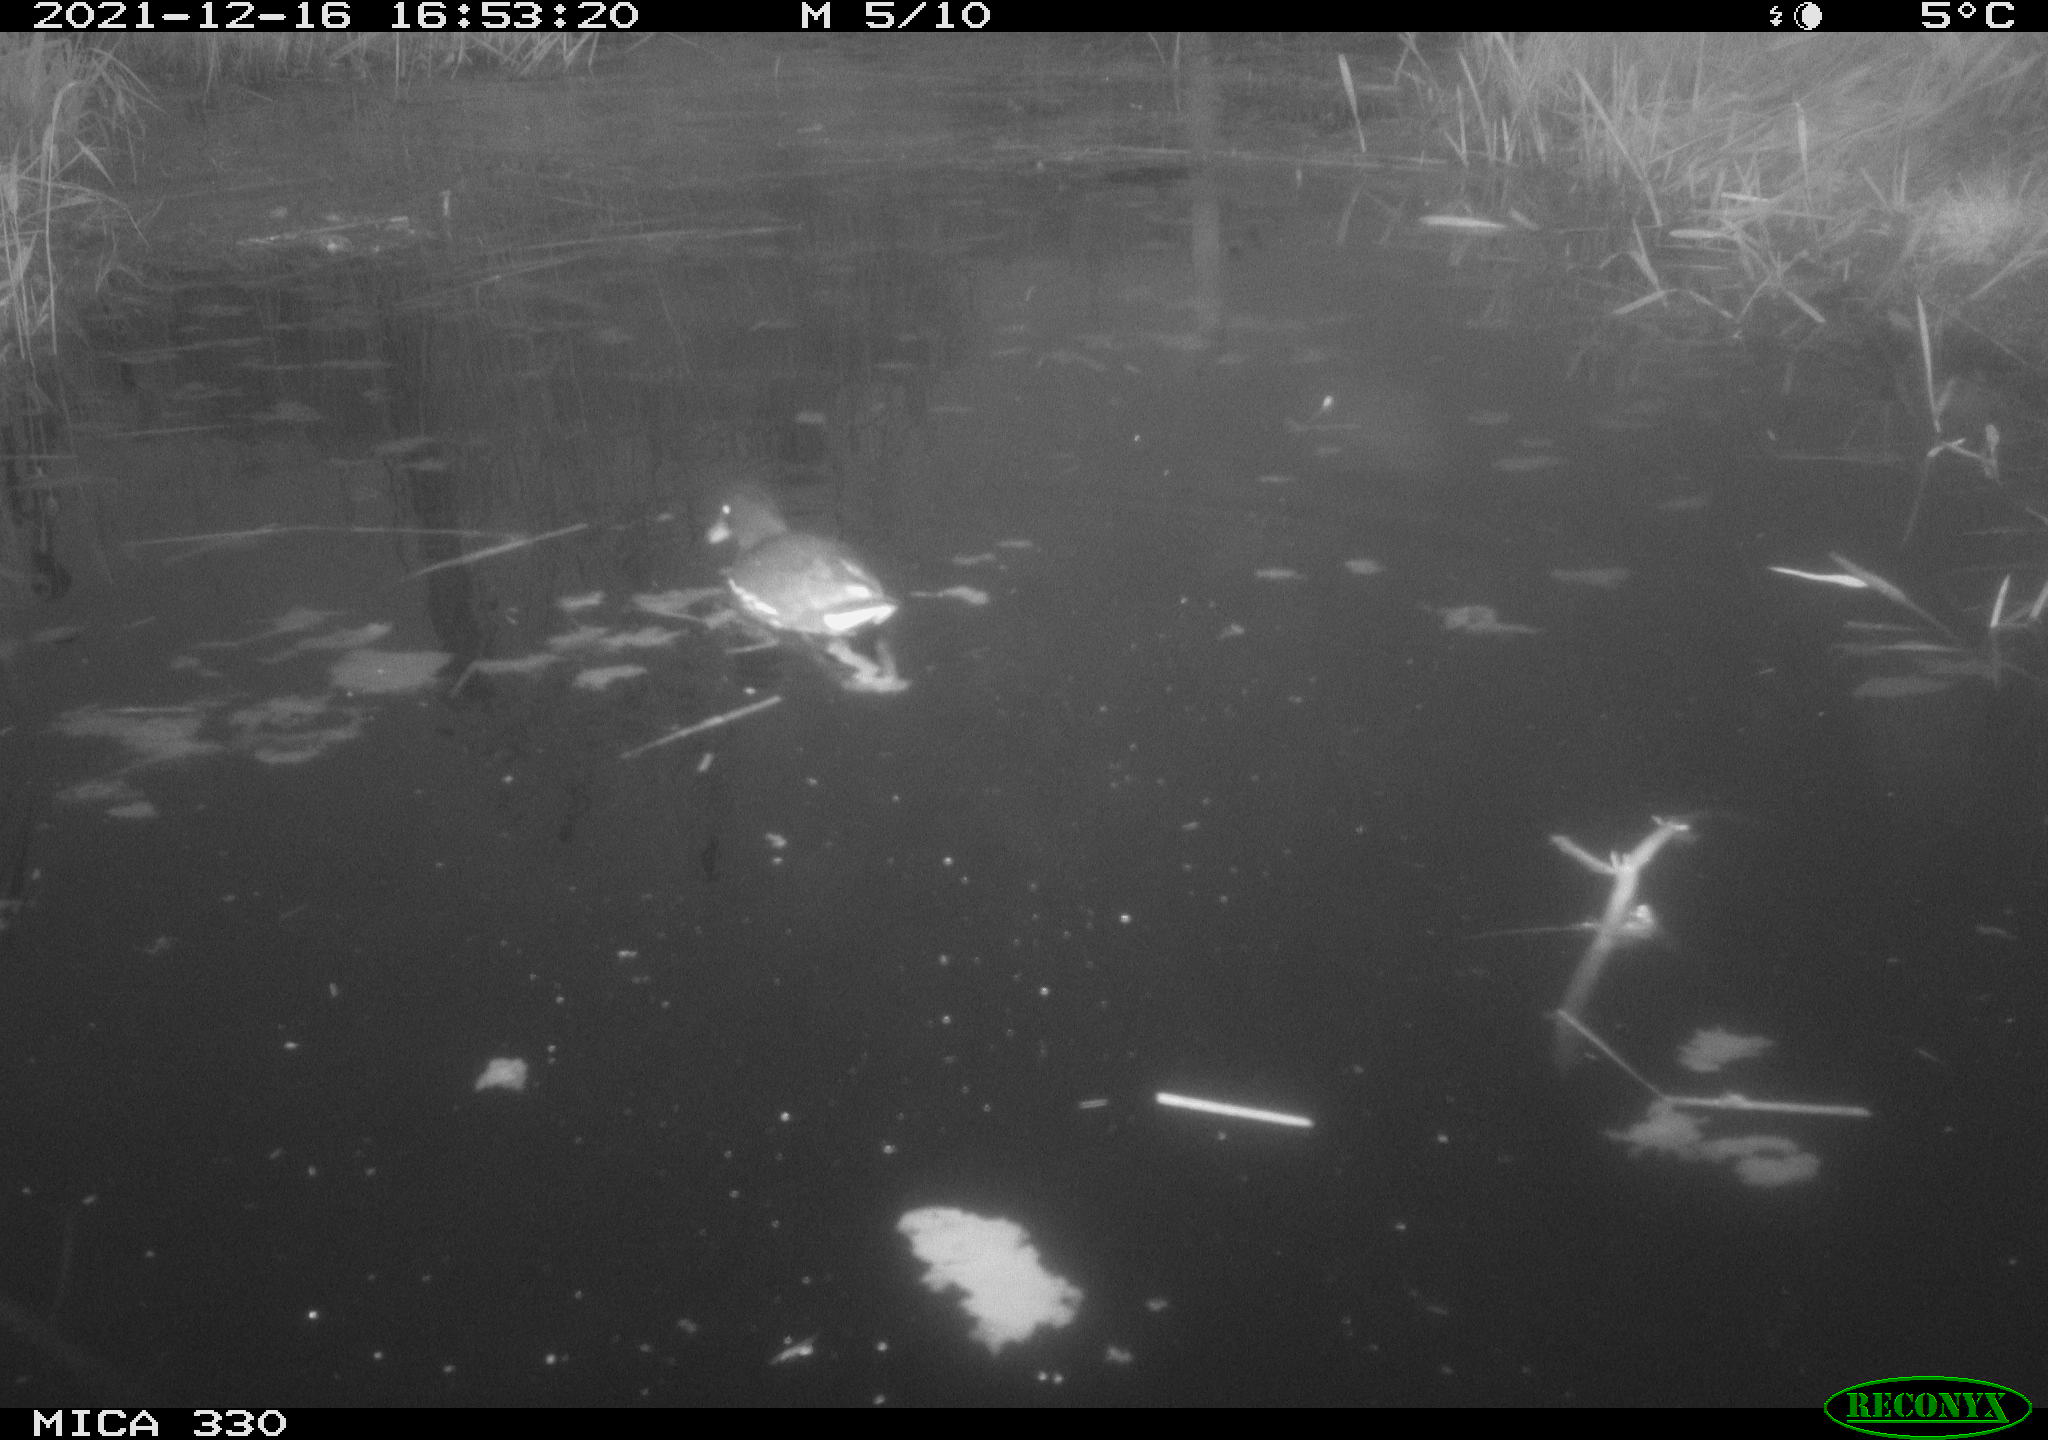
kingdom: Animalia
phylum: Chordata
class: Aves
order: Gruiformes
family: Rallidae
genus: Gallinula
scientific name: Gallinula chloropus
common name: Common moorhen
